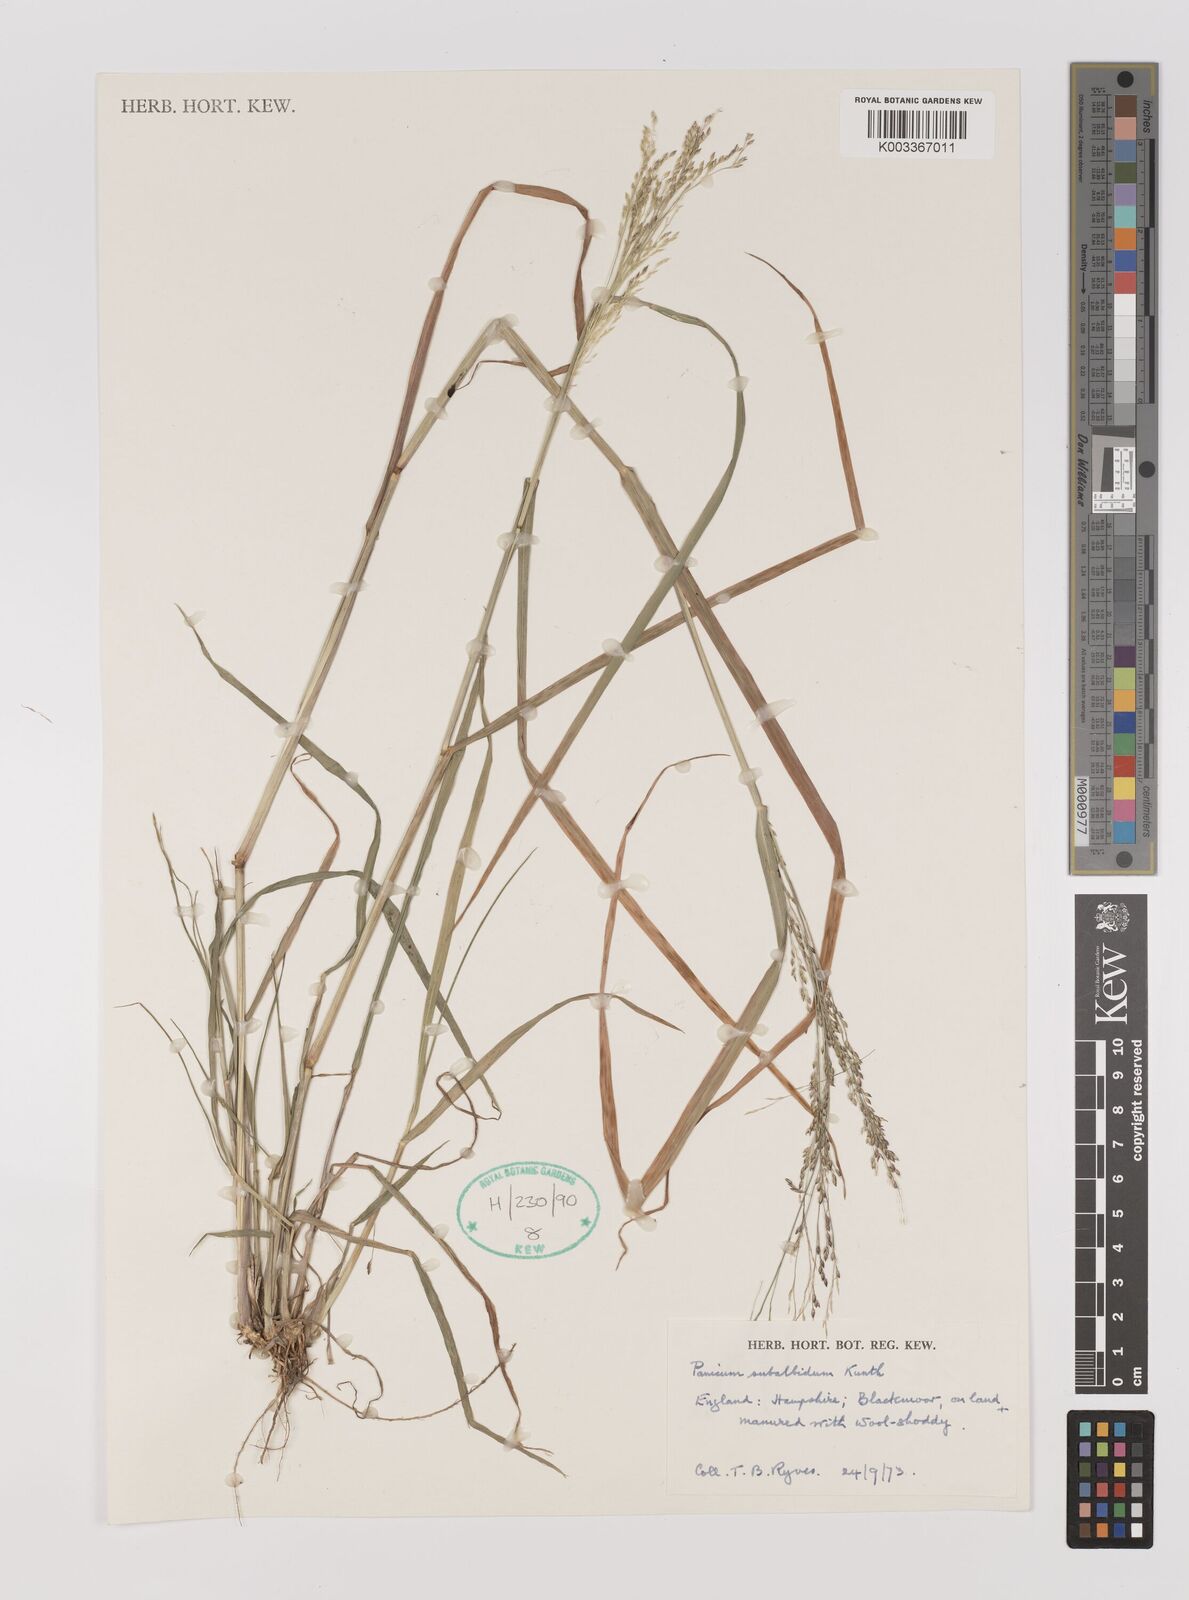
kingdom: Plantae
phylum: Tracheophyta
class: Liliopsida
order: Poales
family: Poaceae
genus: Panicum
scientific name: Panicum subalbidum
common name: Elbow buffalo grass
